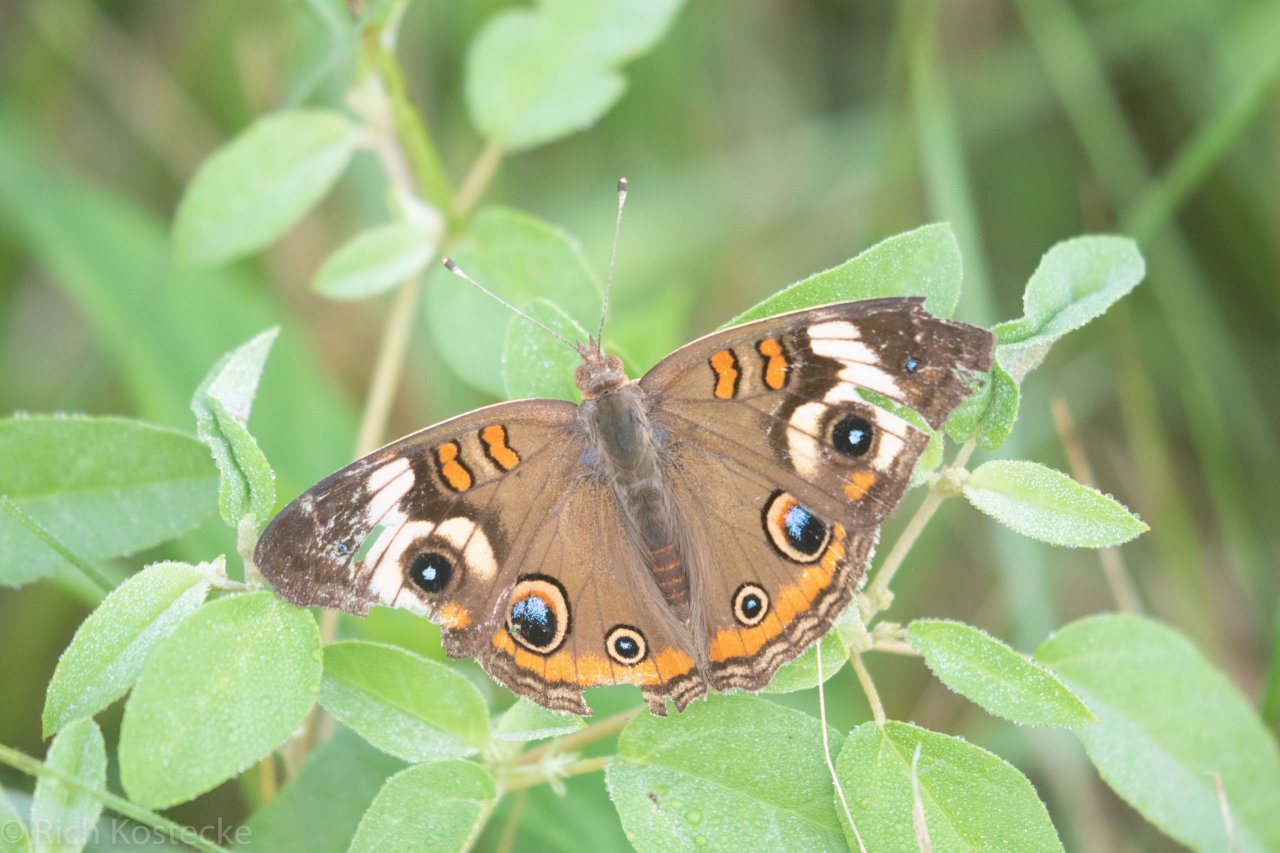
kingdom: Animalia
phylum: Arthropoda
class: Insecta
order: Lepidoptera
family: Nymphalidae
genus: Junonia
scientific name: Junonia coenia
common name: Common Buckeye
